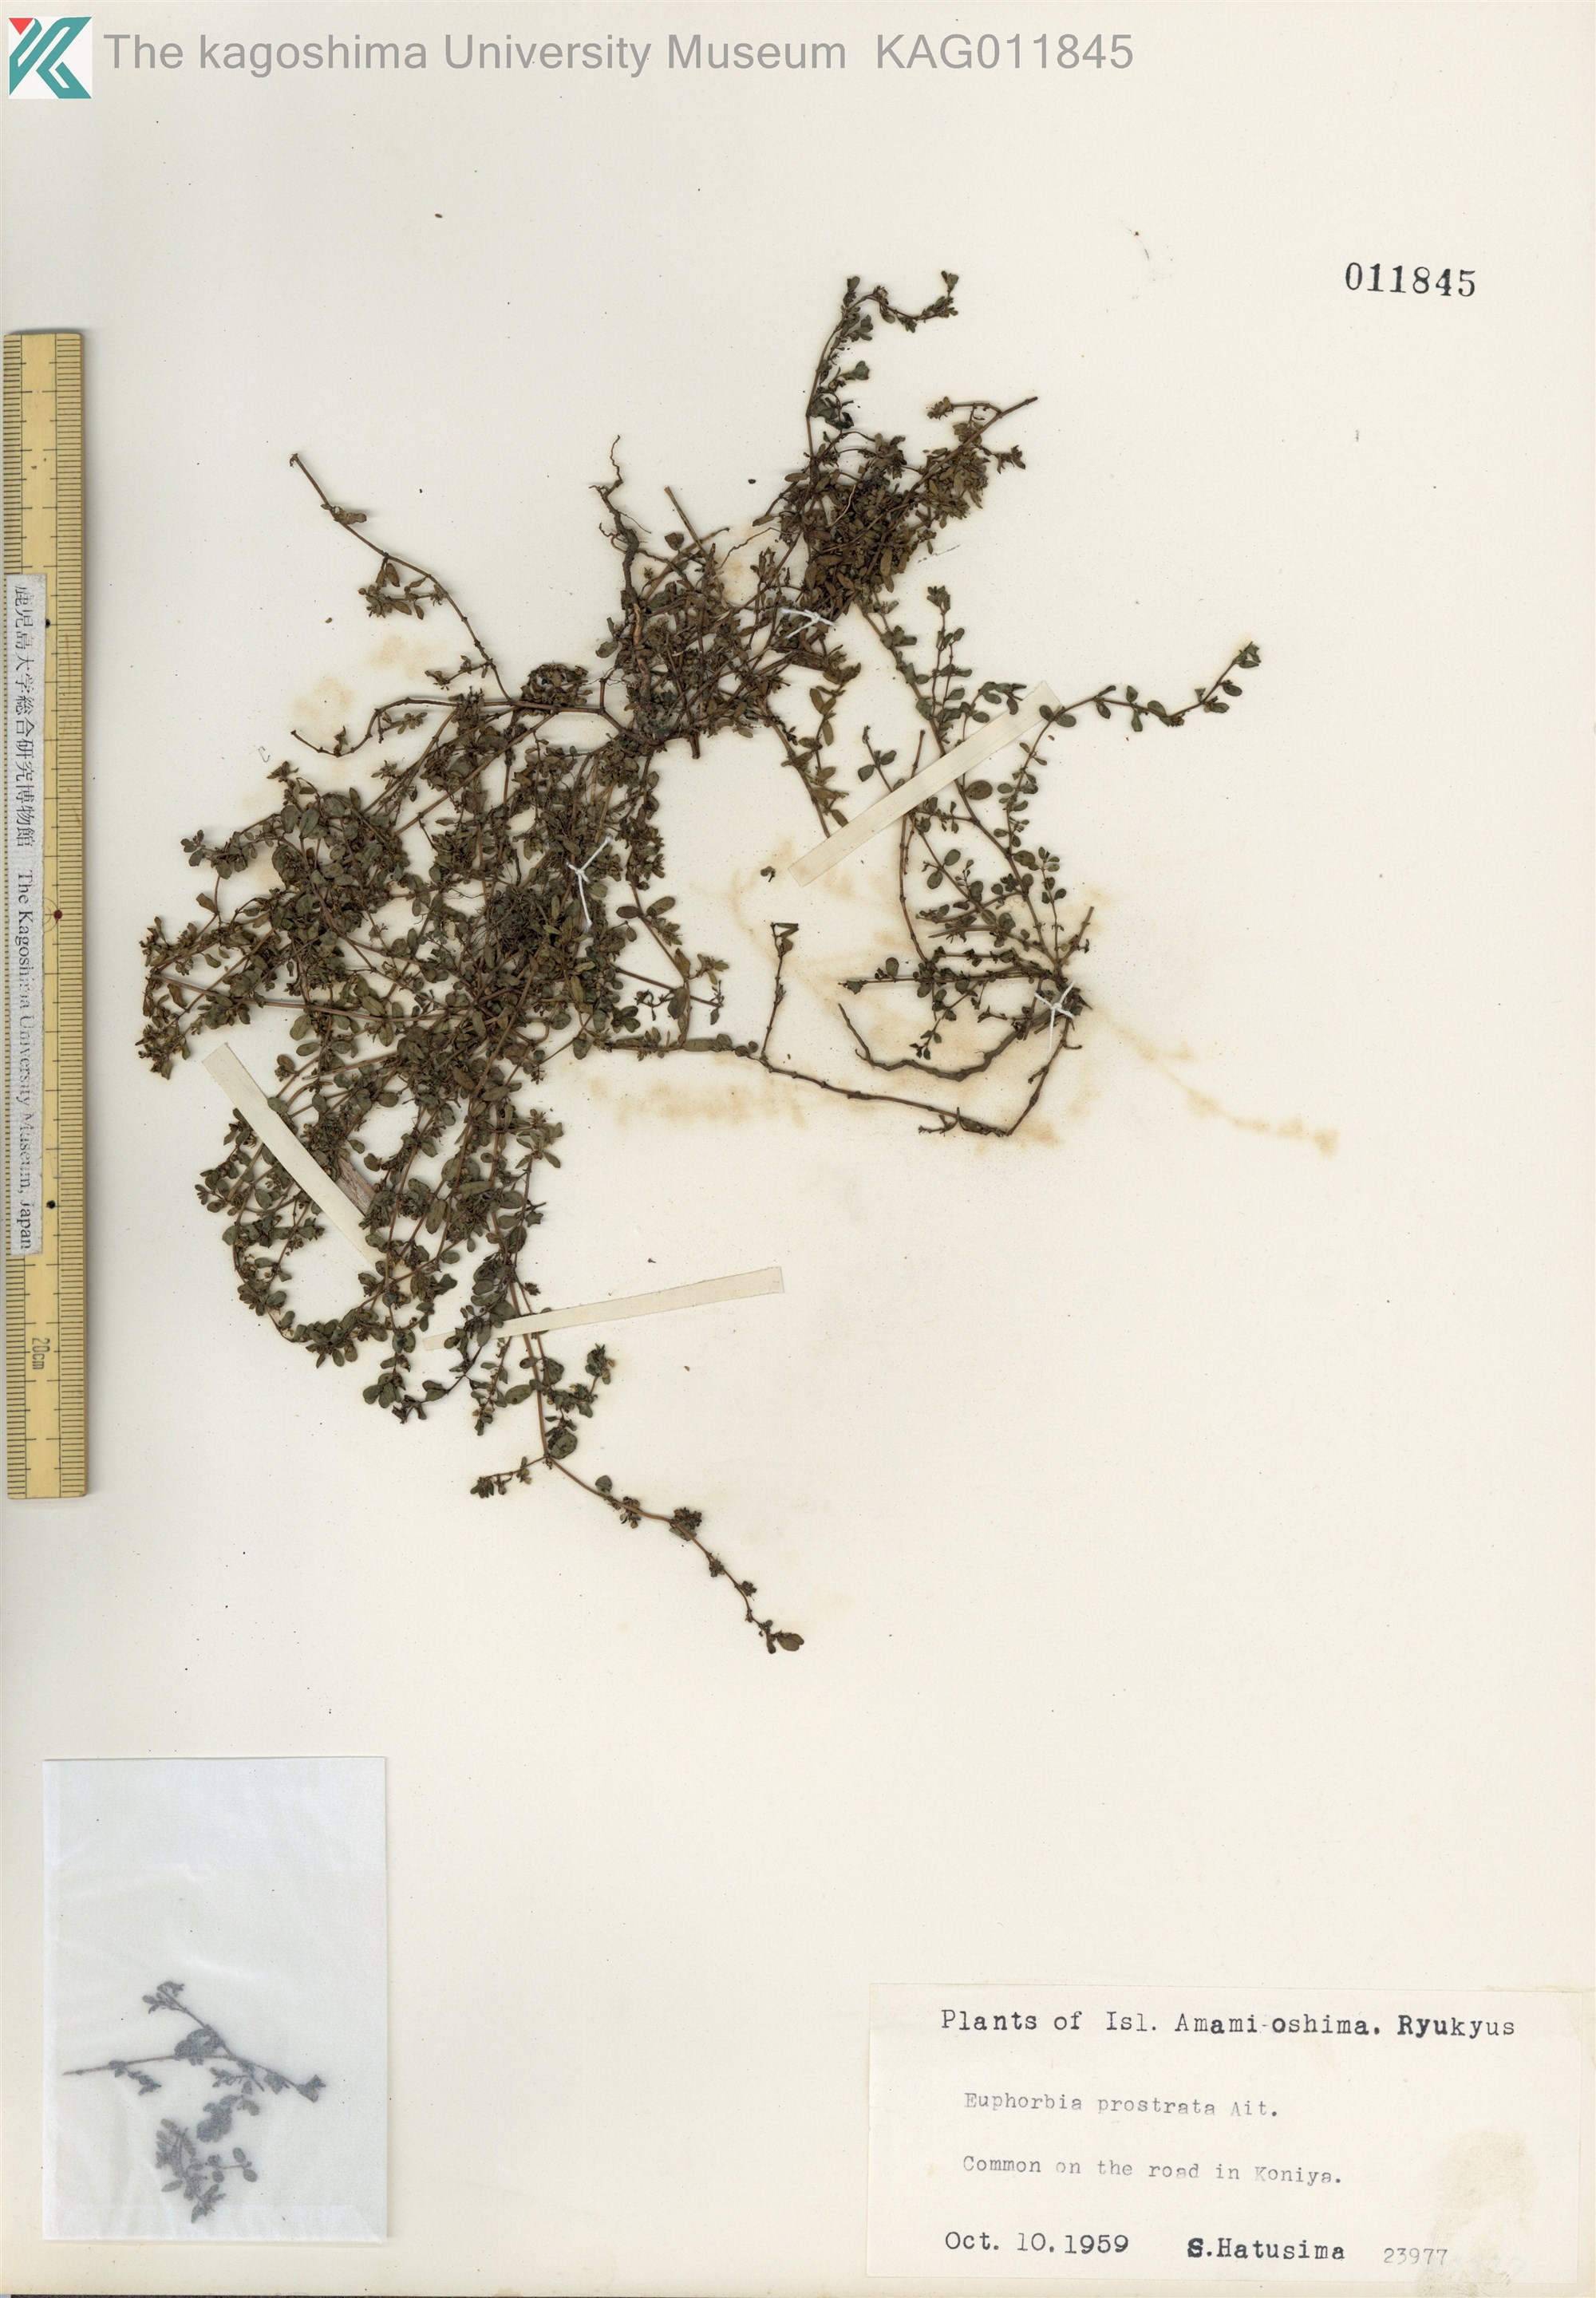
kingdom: Plantae
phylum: Tracheophyta
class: Magnoliopsida
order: Malpighiales
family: Euphorbiaceae
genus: Euphorbia
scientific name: Euphorbia prostrata
